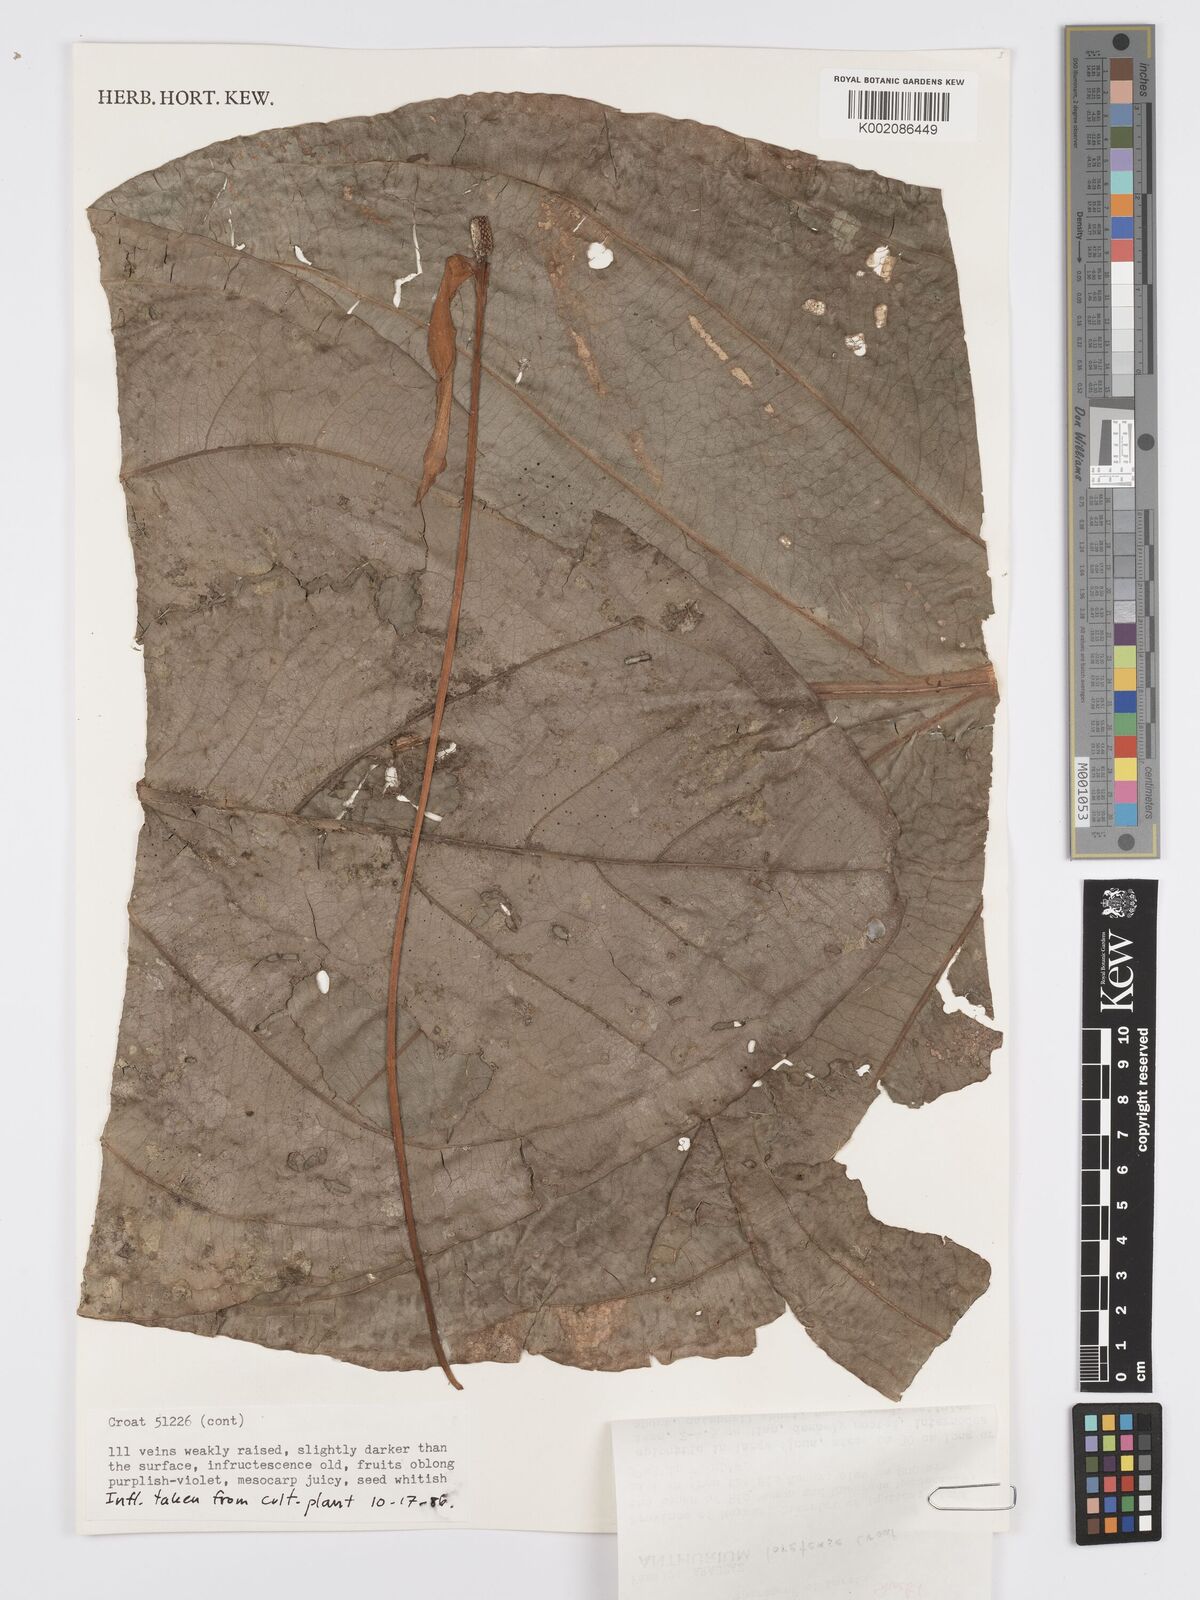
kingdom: Plantae
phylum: Tracheophyta
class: Liliopsida
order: Alismatales
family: Araceae
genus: Anthurium
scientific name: Anthurium loretense
